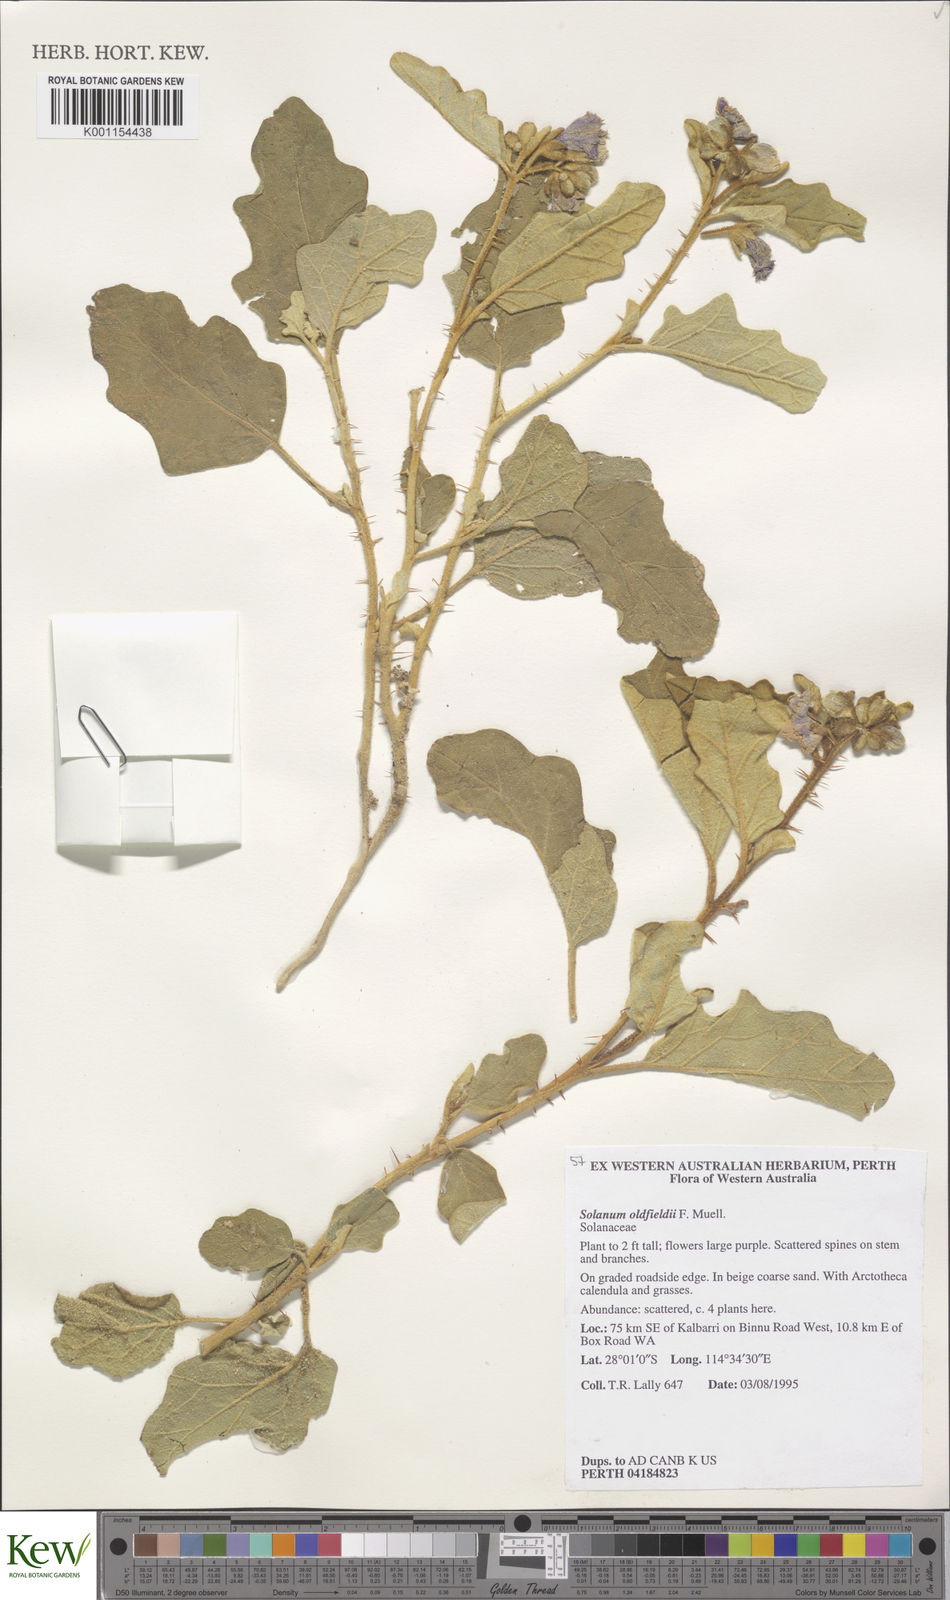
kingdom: Plantae
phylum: Tracheophyta
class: Magnoliopsida
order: Solanales
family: Solanaceae
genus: Solanum
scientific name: Solanum oldfieldii
